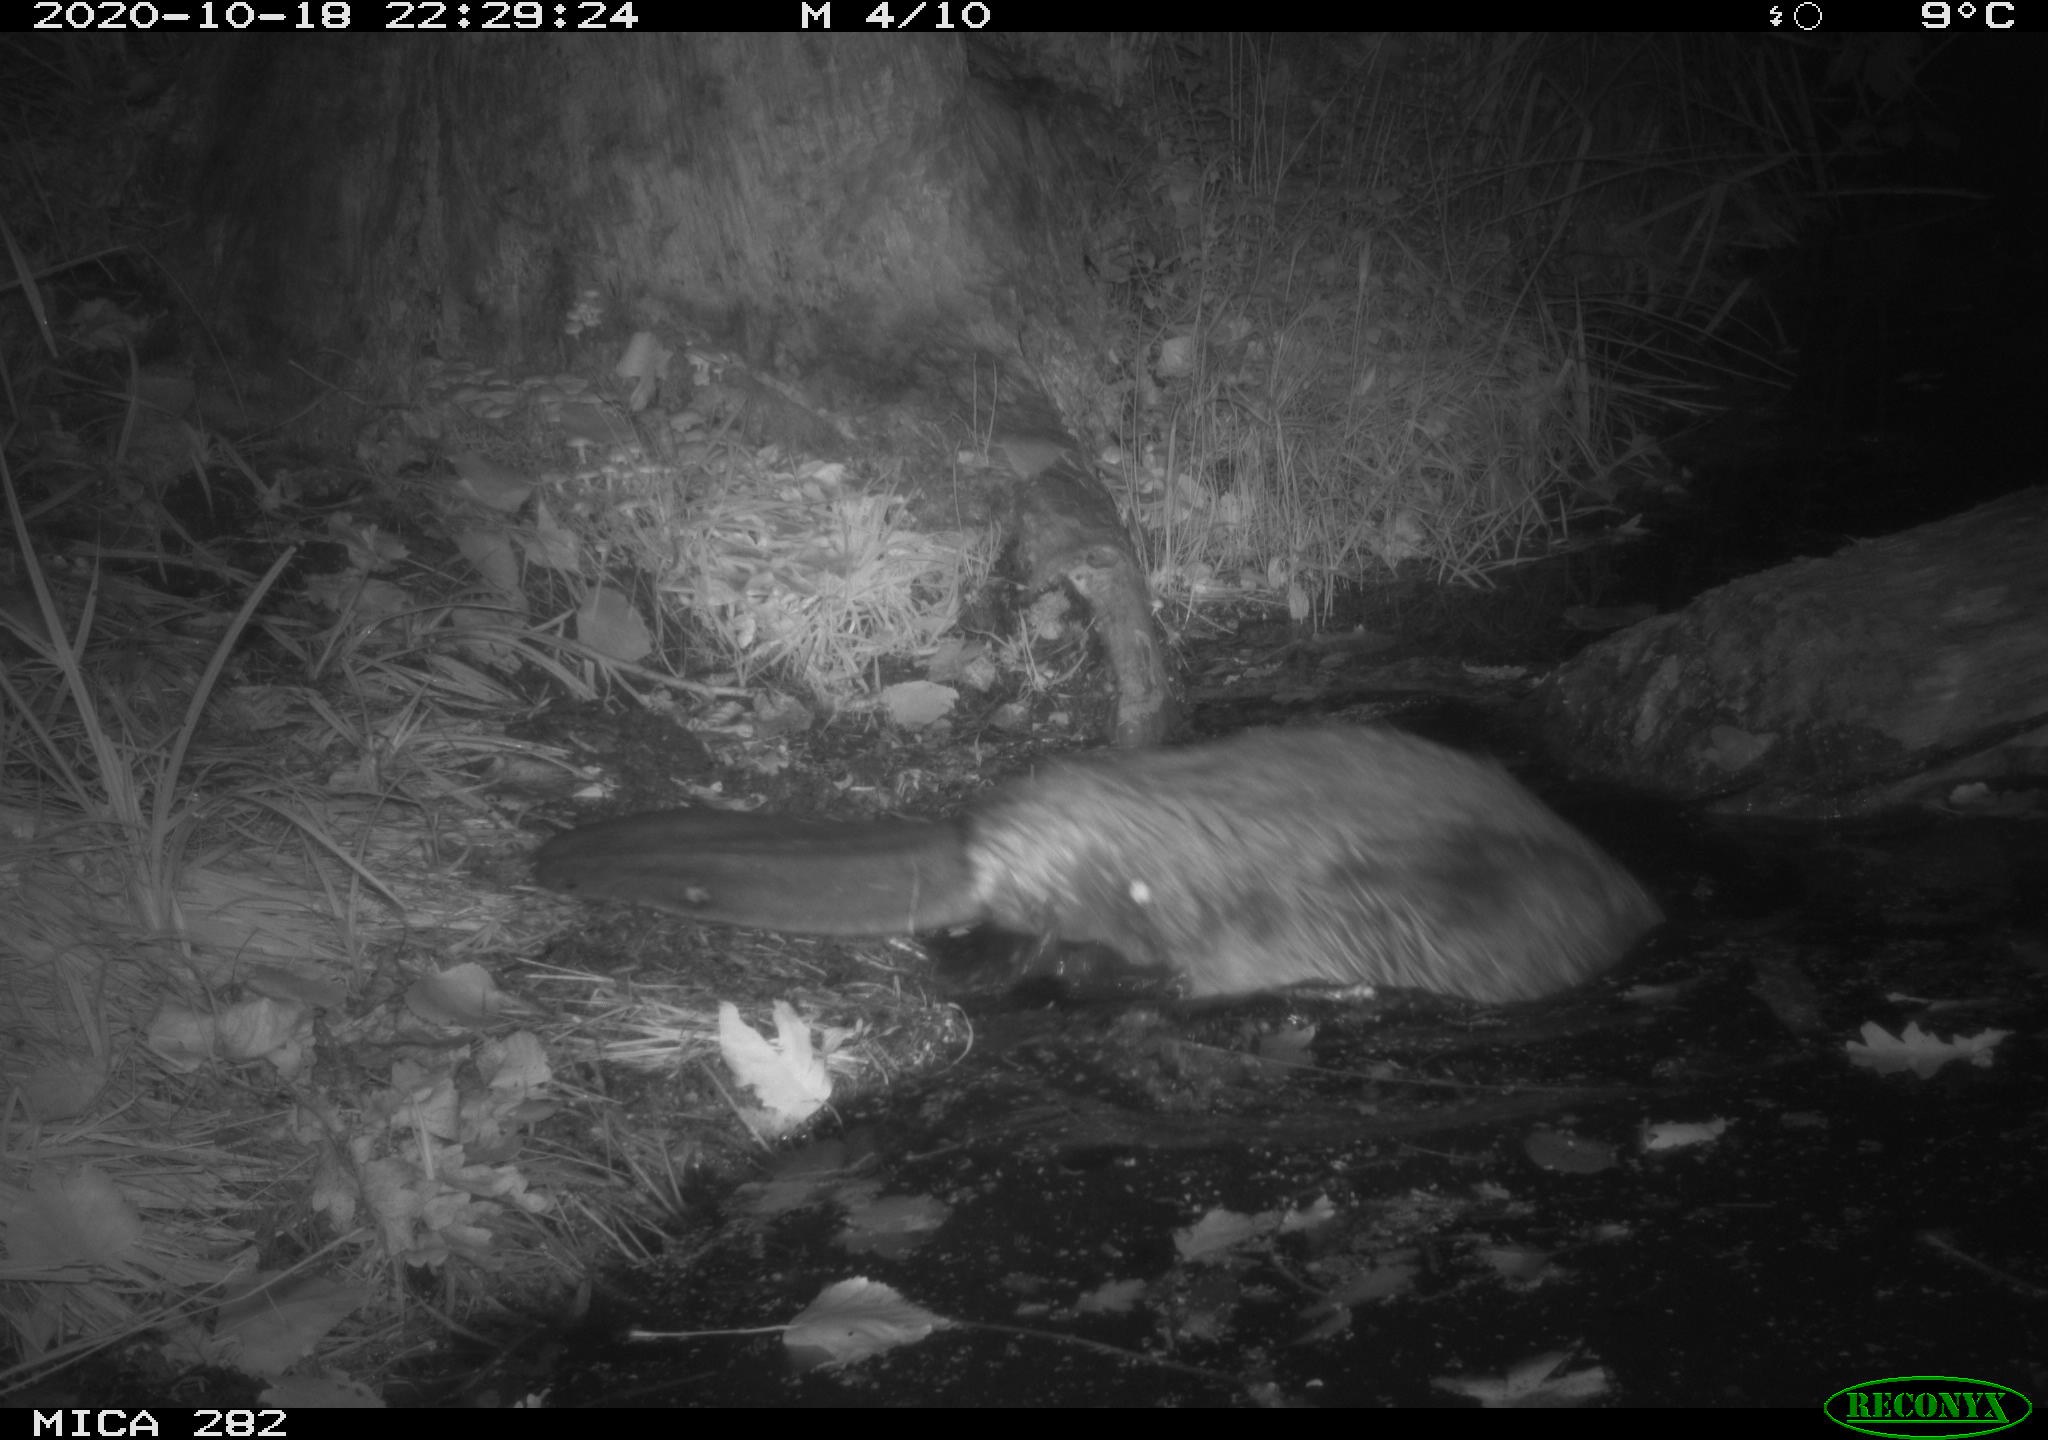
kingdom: Animalia
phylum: Chordata
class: Mammalia
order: Rodentia
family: Castoridae
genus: Castor
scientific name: Castor fiber
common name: Eurasian beaver
